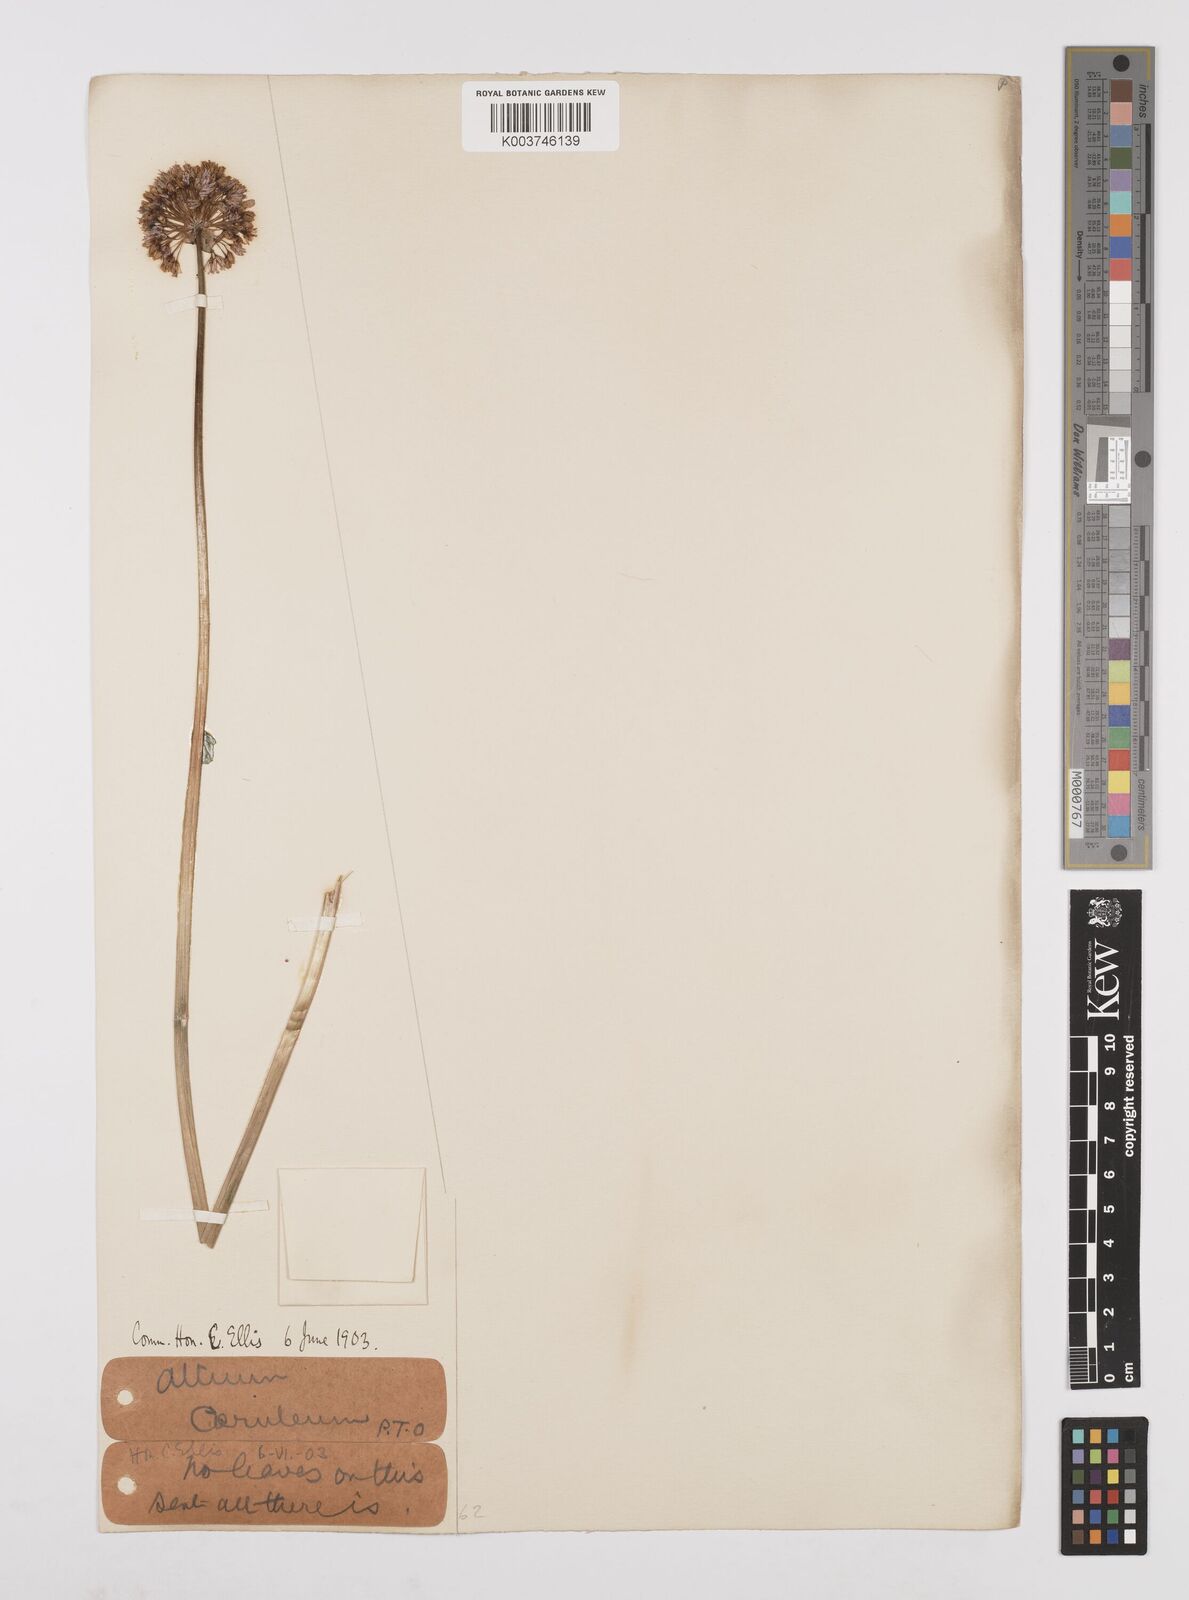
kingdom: Plantae
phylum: Tracheophyta
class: Liliopsida
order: Asparagales
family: Amaryllidaceae
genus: Allium
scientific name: Allium caeruleum
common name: Blue-of-the-heavens
